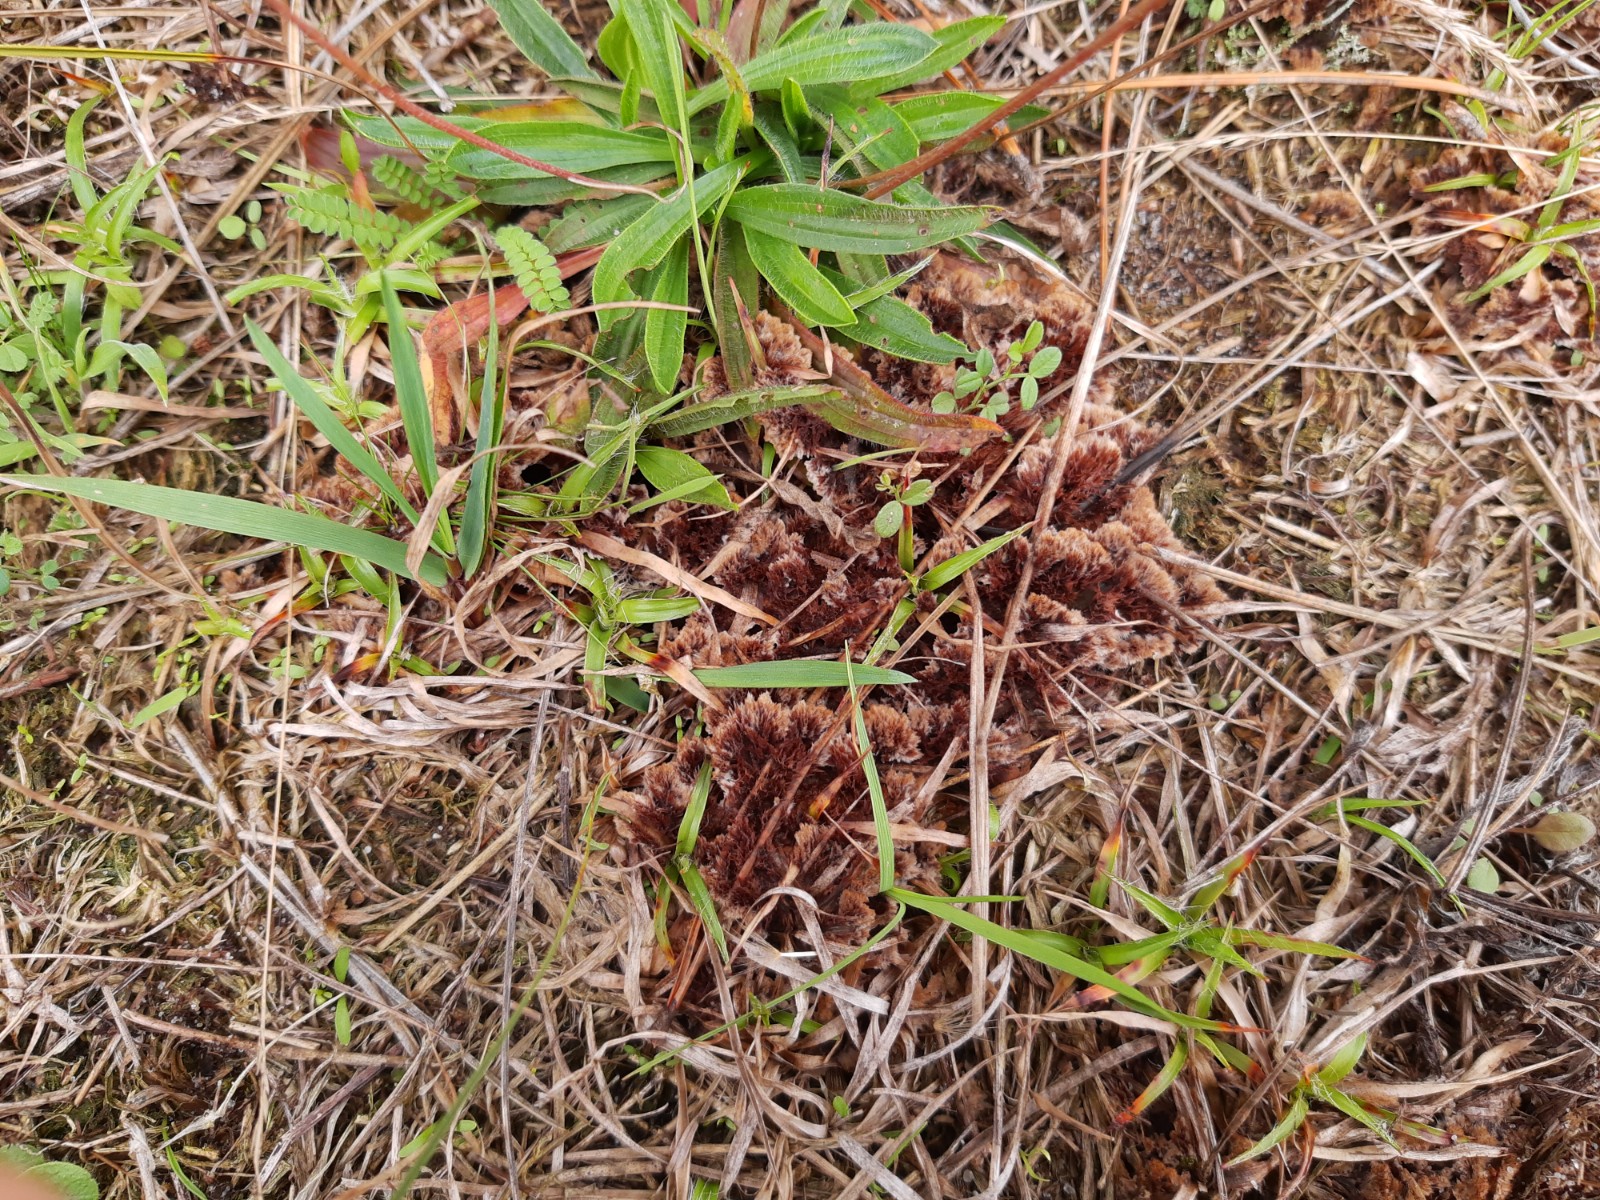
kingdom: Fungi
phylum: Basidiomycota
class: Agaricomycetes
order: Thelephorales
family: Thelephoraceae
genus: Thelephora
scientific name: Thelephora terrestris
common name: fliget frynsesvamp
